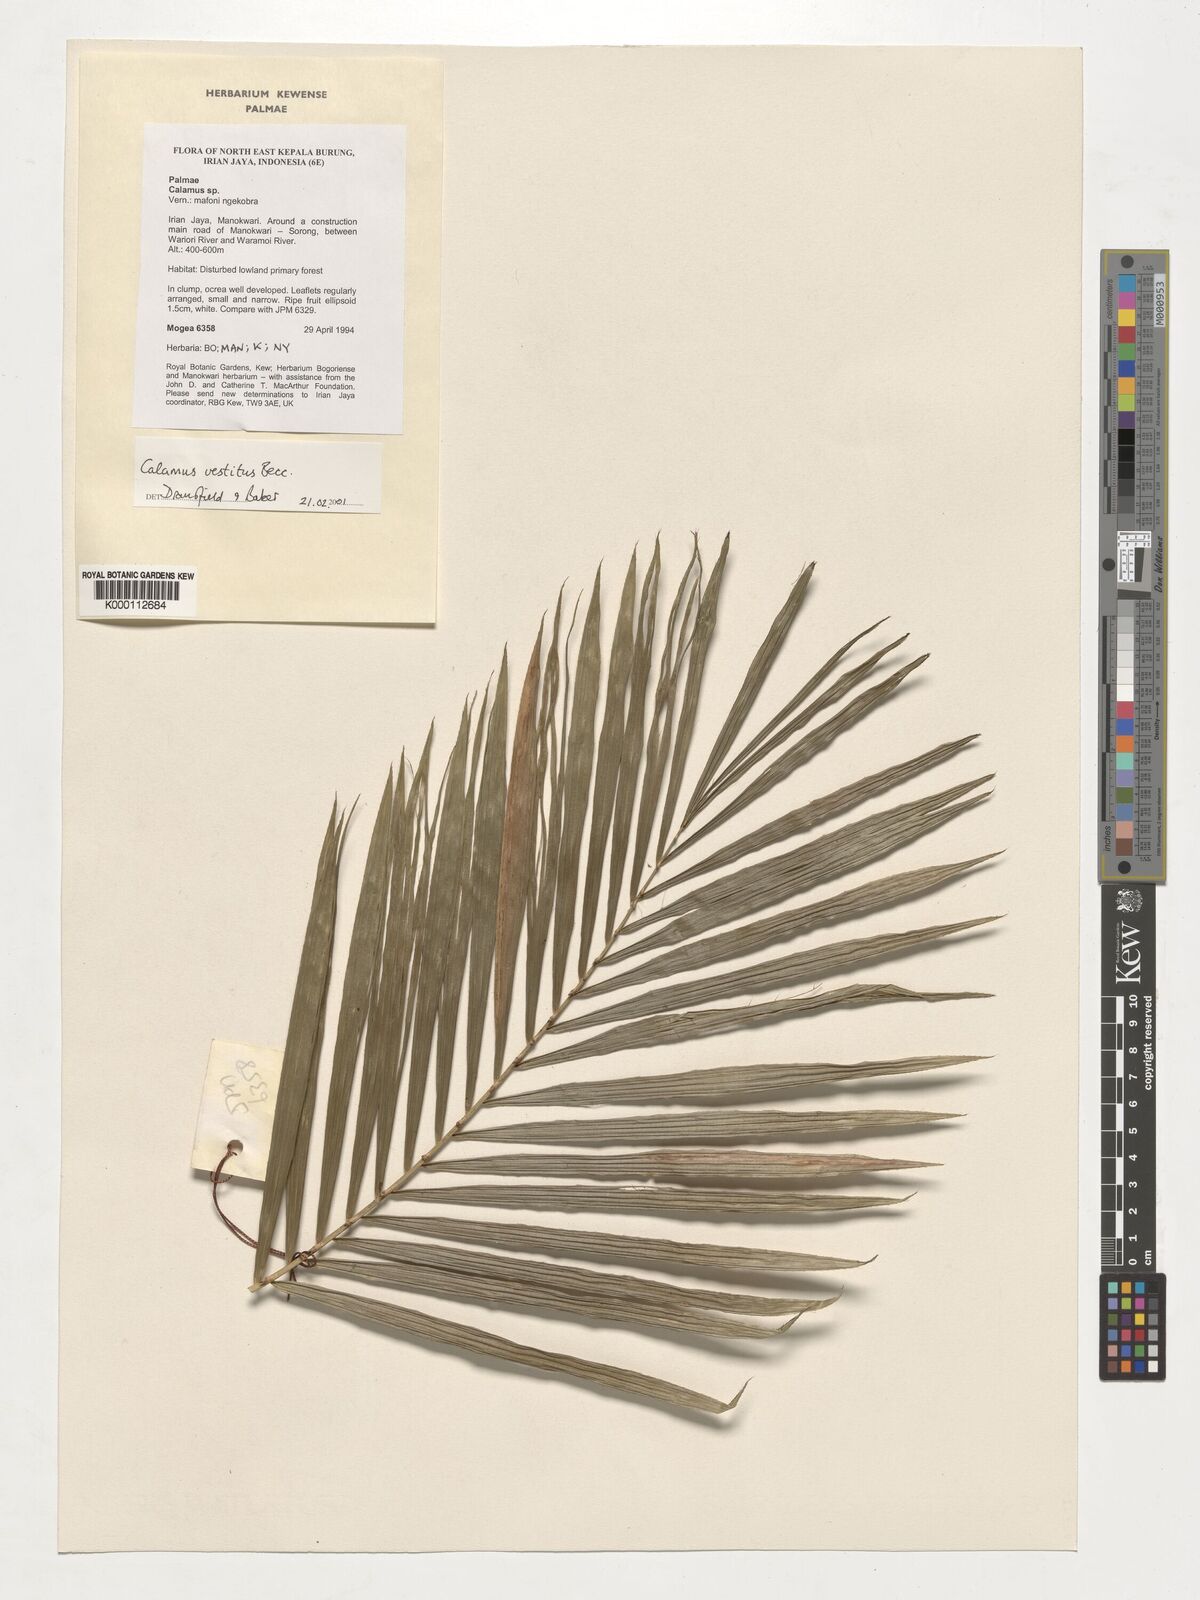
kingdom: Plantae
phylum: Tracheophyta
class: Liliopsida
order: Arecales
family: Arecaceae
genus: Calamus
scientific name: Calamus vestitus
